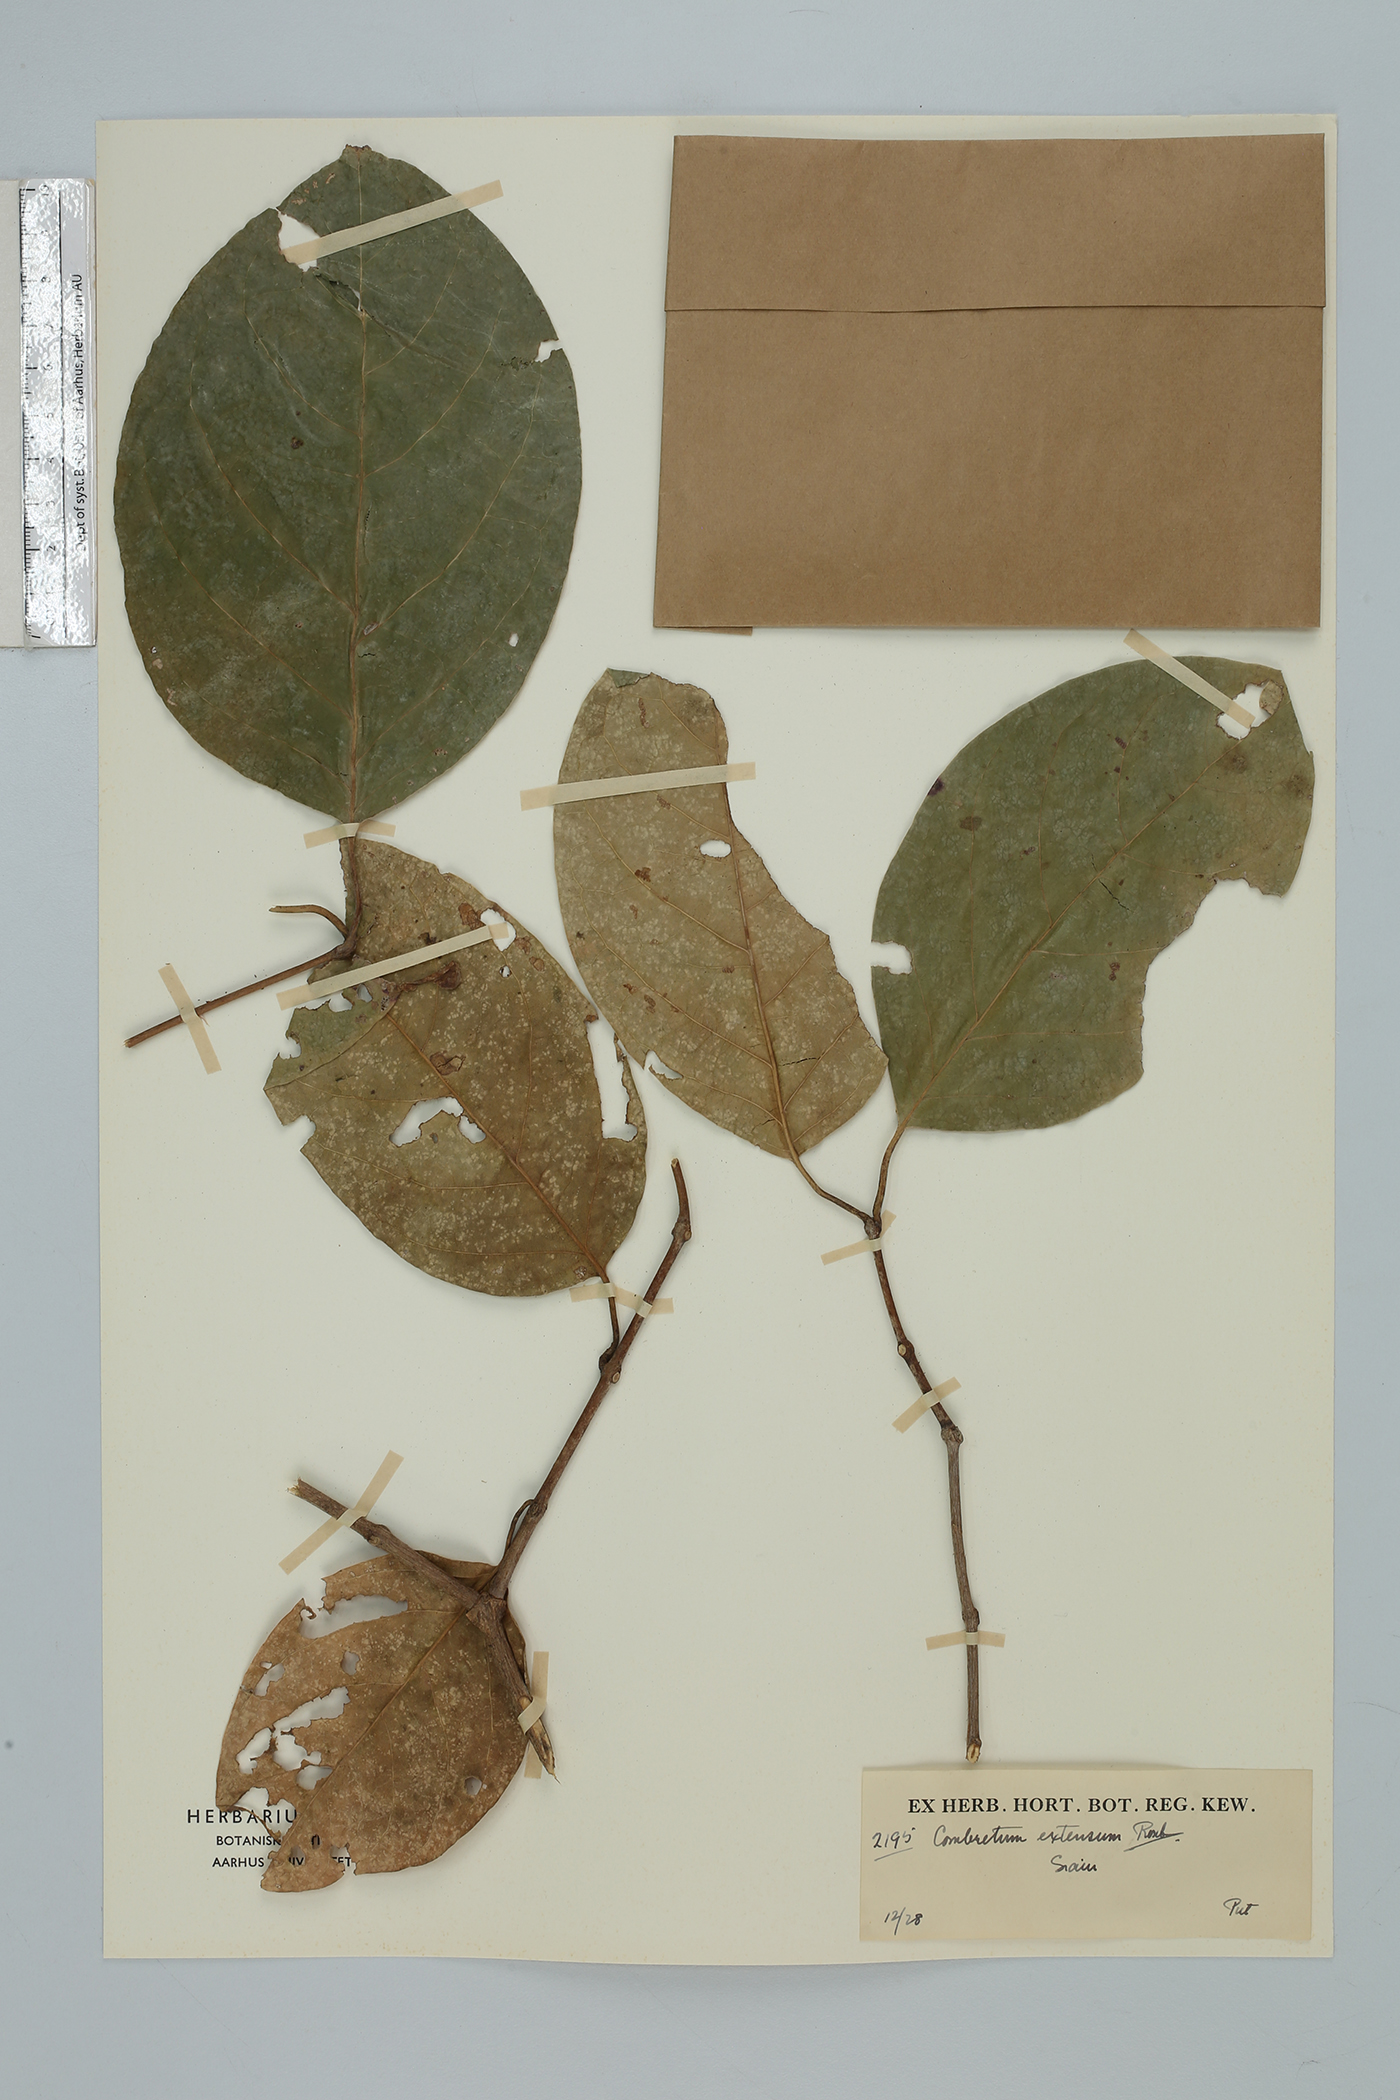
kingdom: Plantae
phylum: Tracheophyta
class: Magnoliopsida
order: Myrtales
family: Combretaceae
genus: Combretum
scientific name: Combretum latifolium
